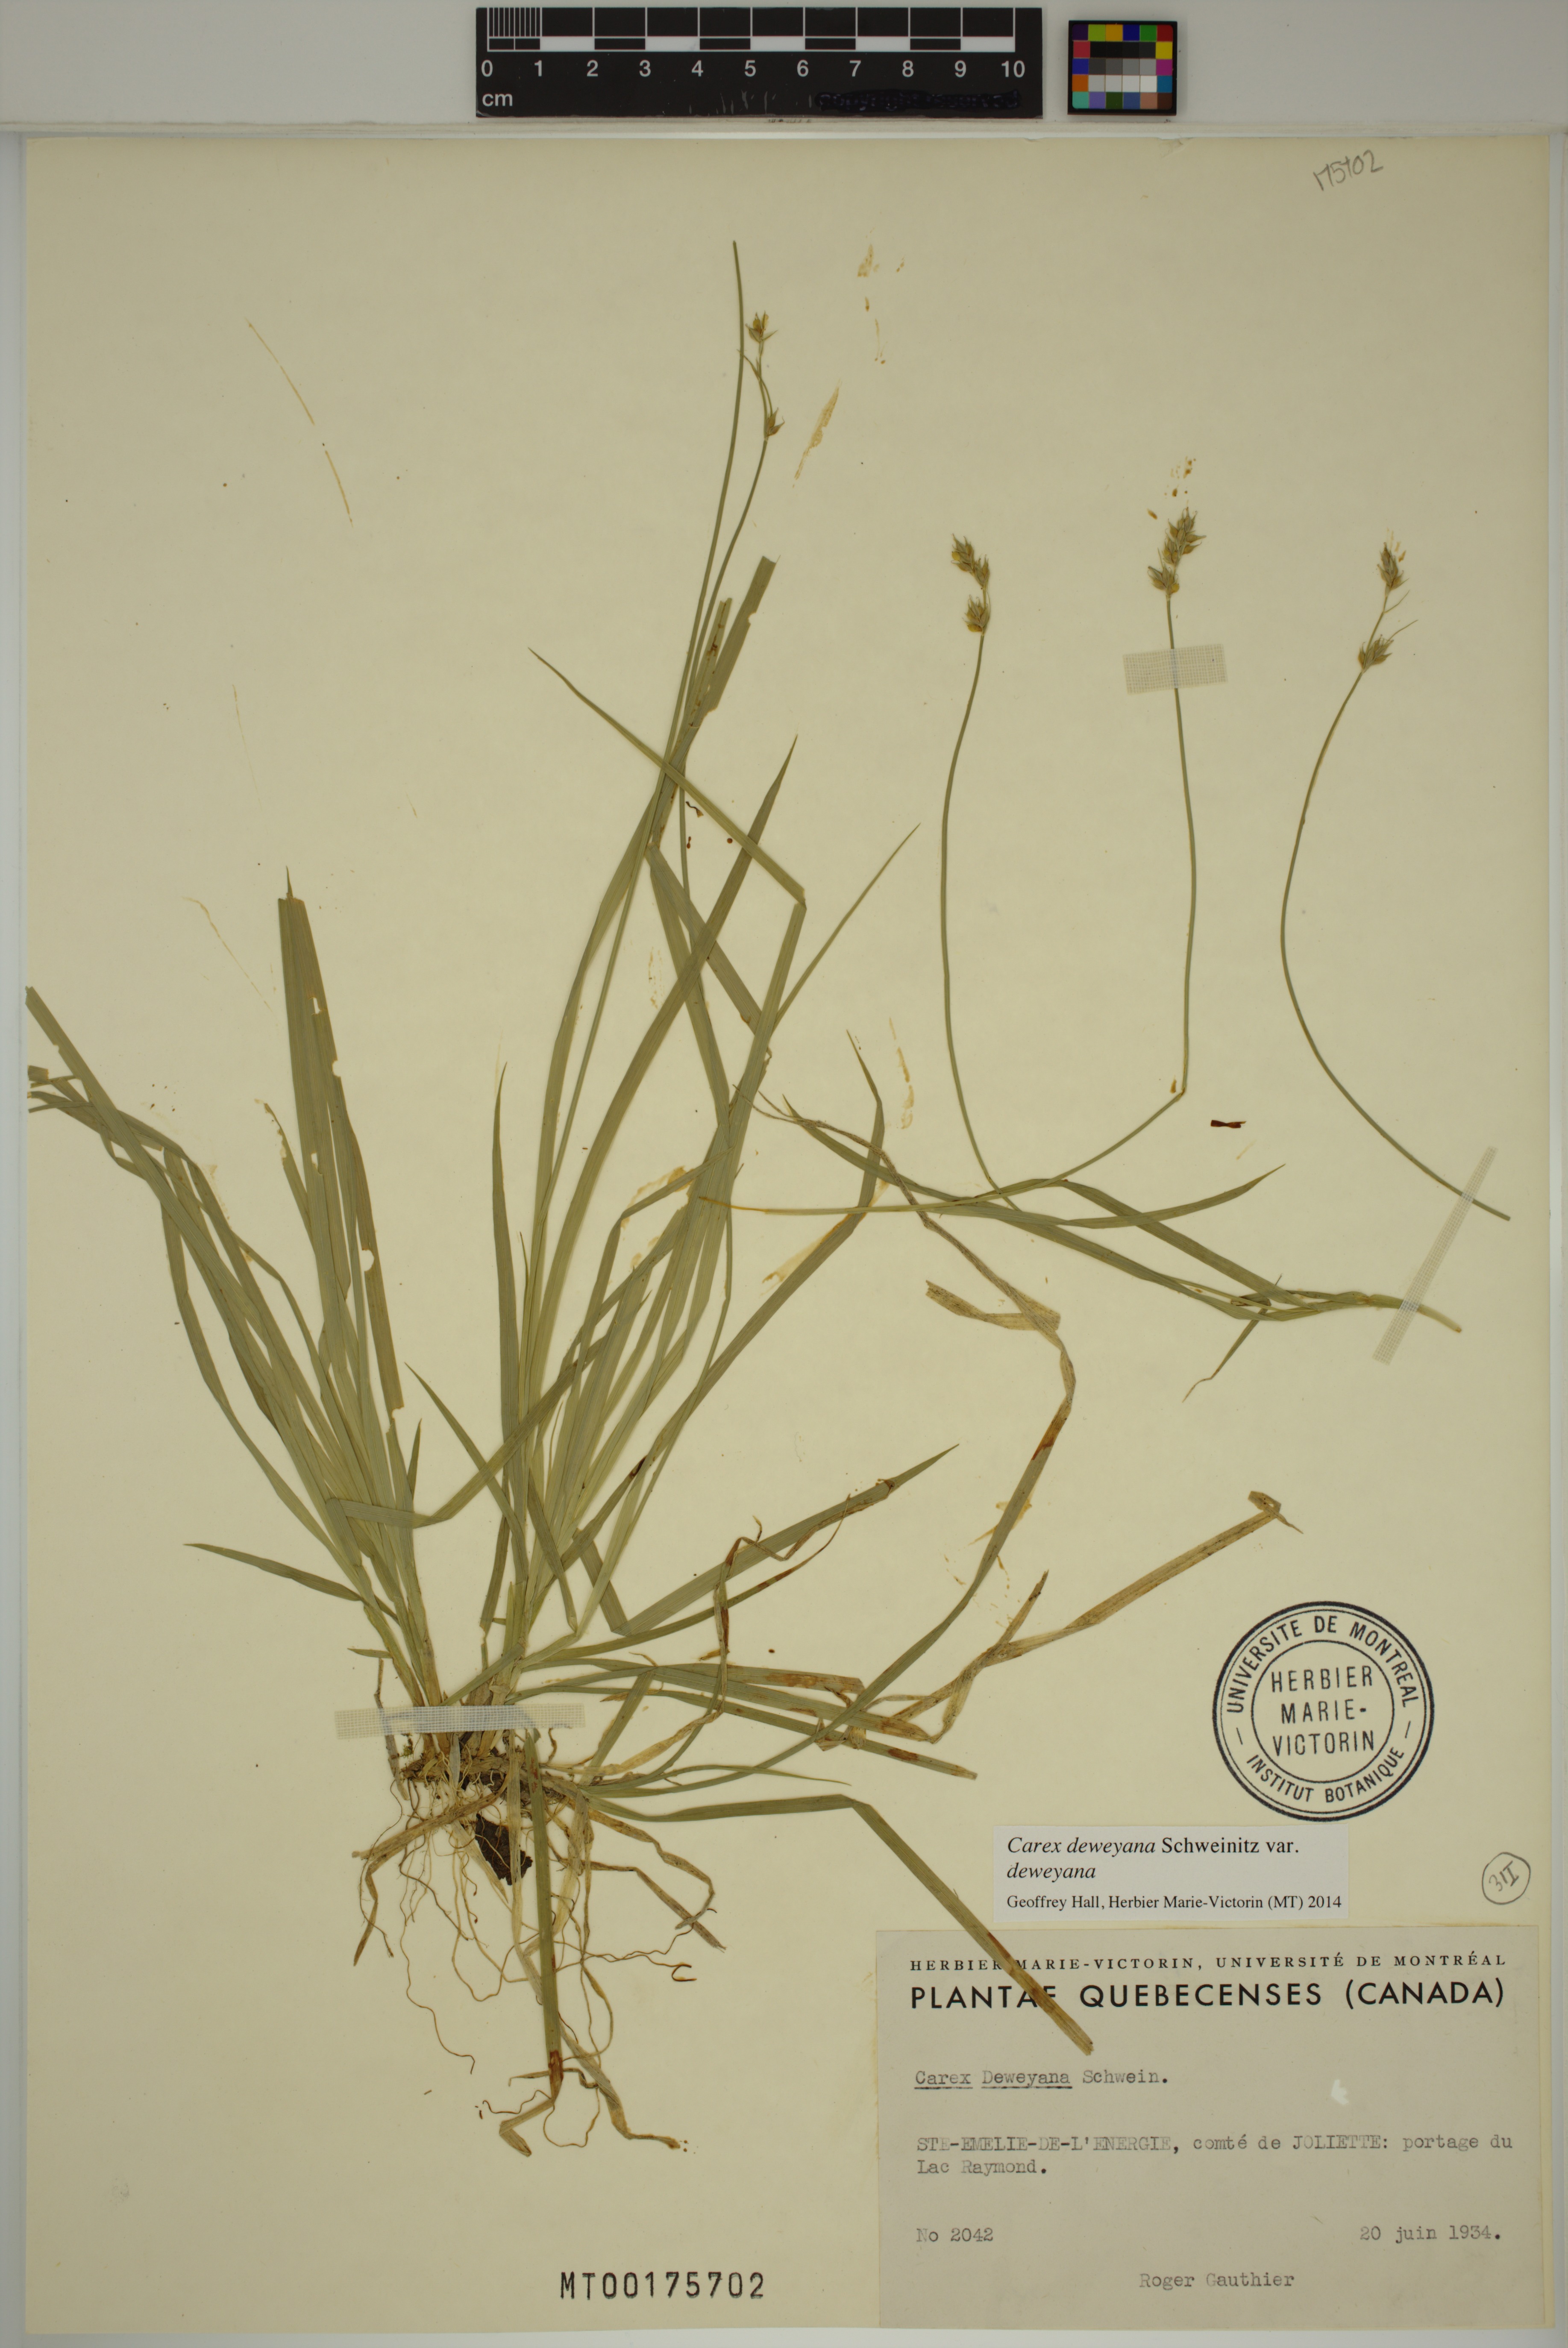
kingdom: Plantae
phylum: Tracheophyta
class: Liliopsida
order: Poales
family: Cyperaceae
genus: Carex
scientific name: Carex deweyana
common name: Dewey's sedge
